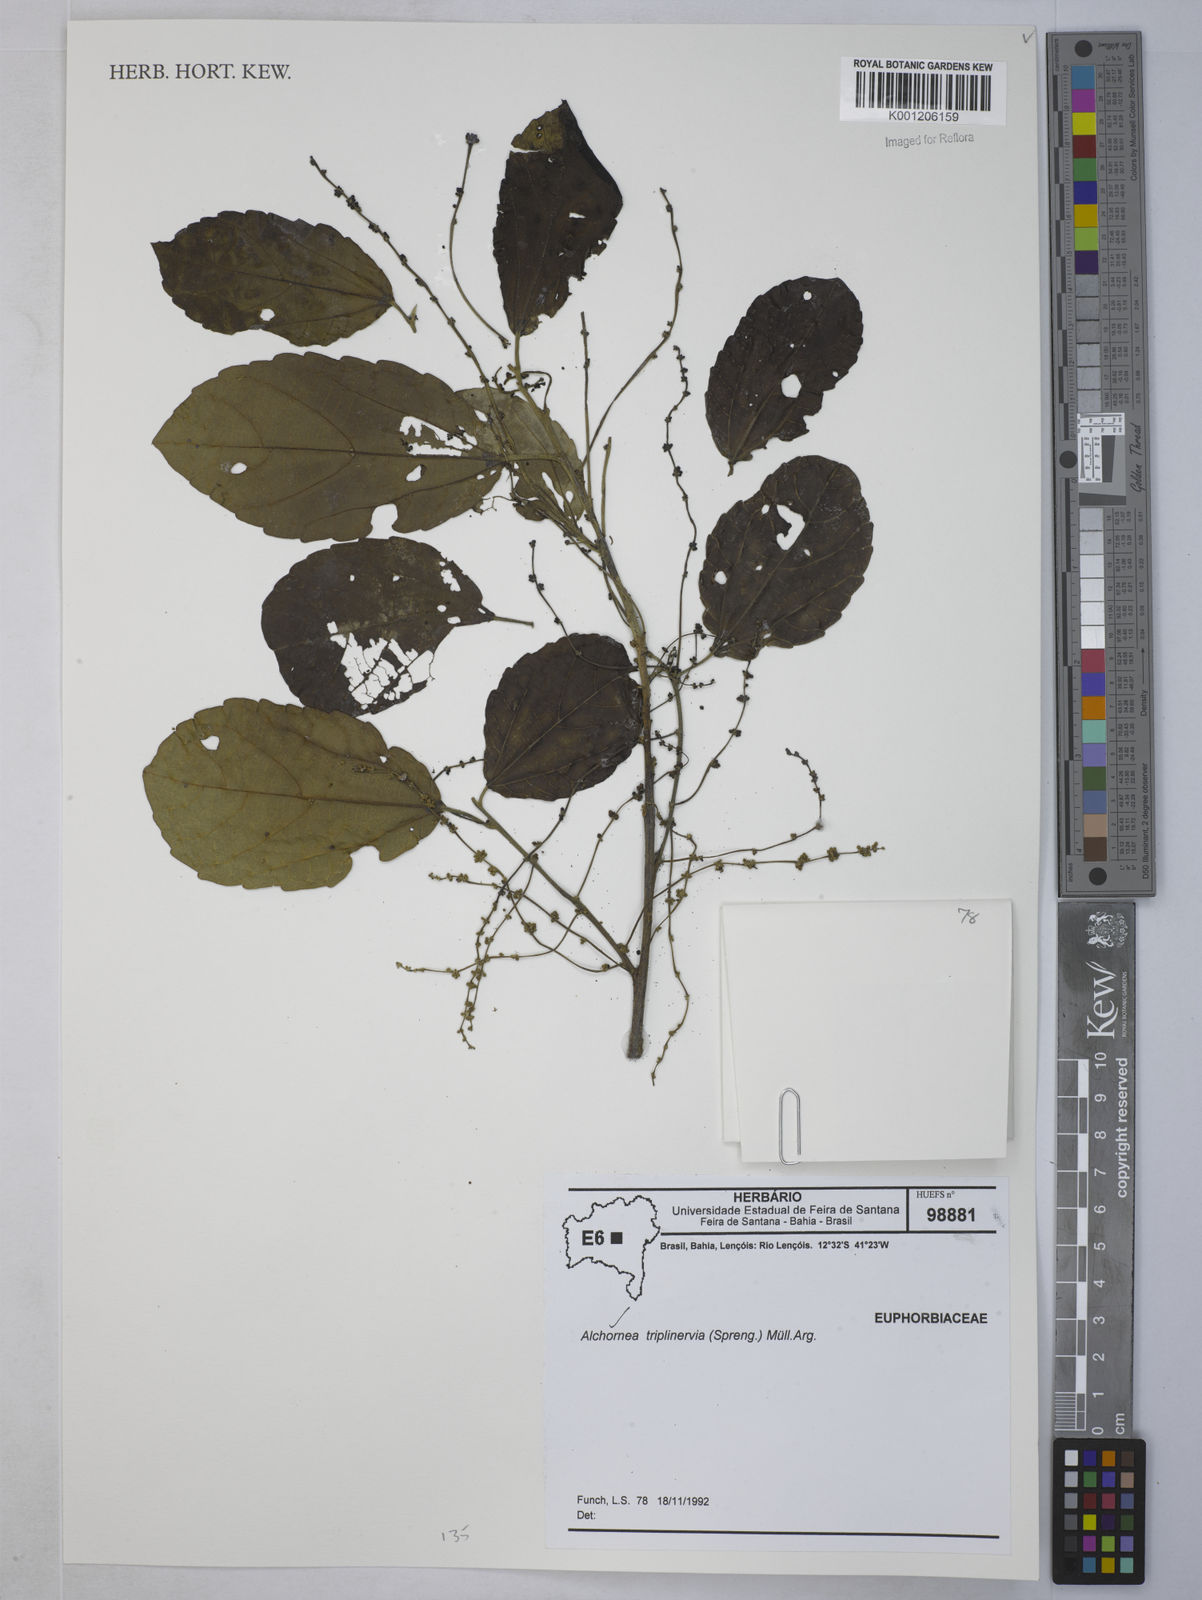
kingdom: Plantae
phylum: Tracheophyta
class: Magnoliopsida
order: Malpighiales
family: Euphorbiaceae
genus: Alchornea
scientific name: Alchornea
